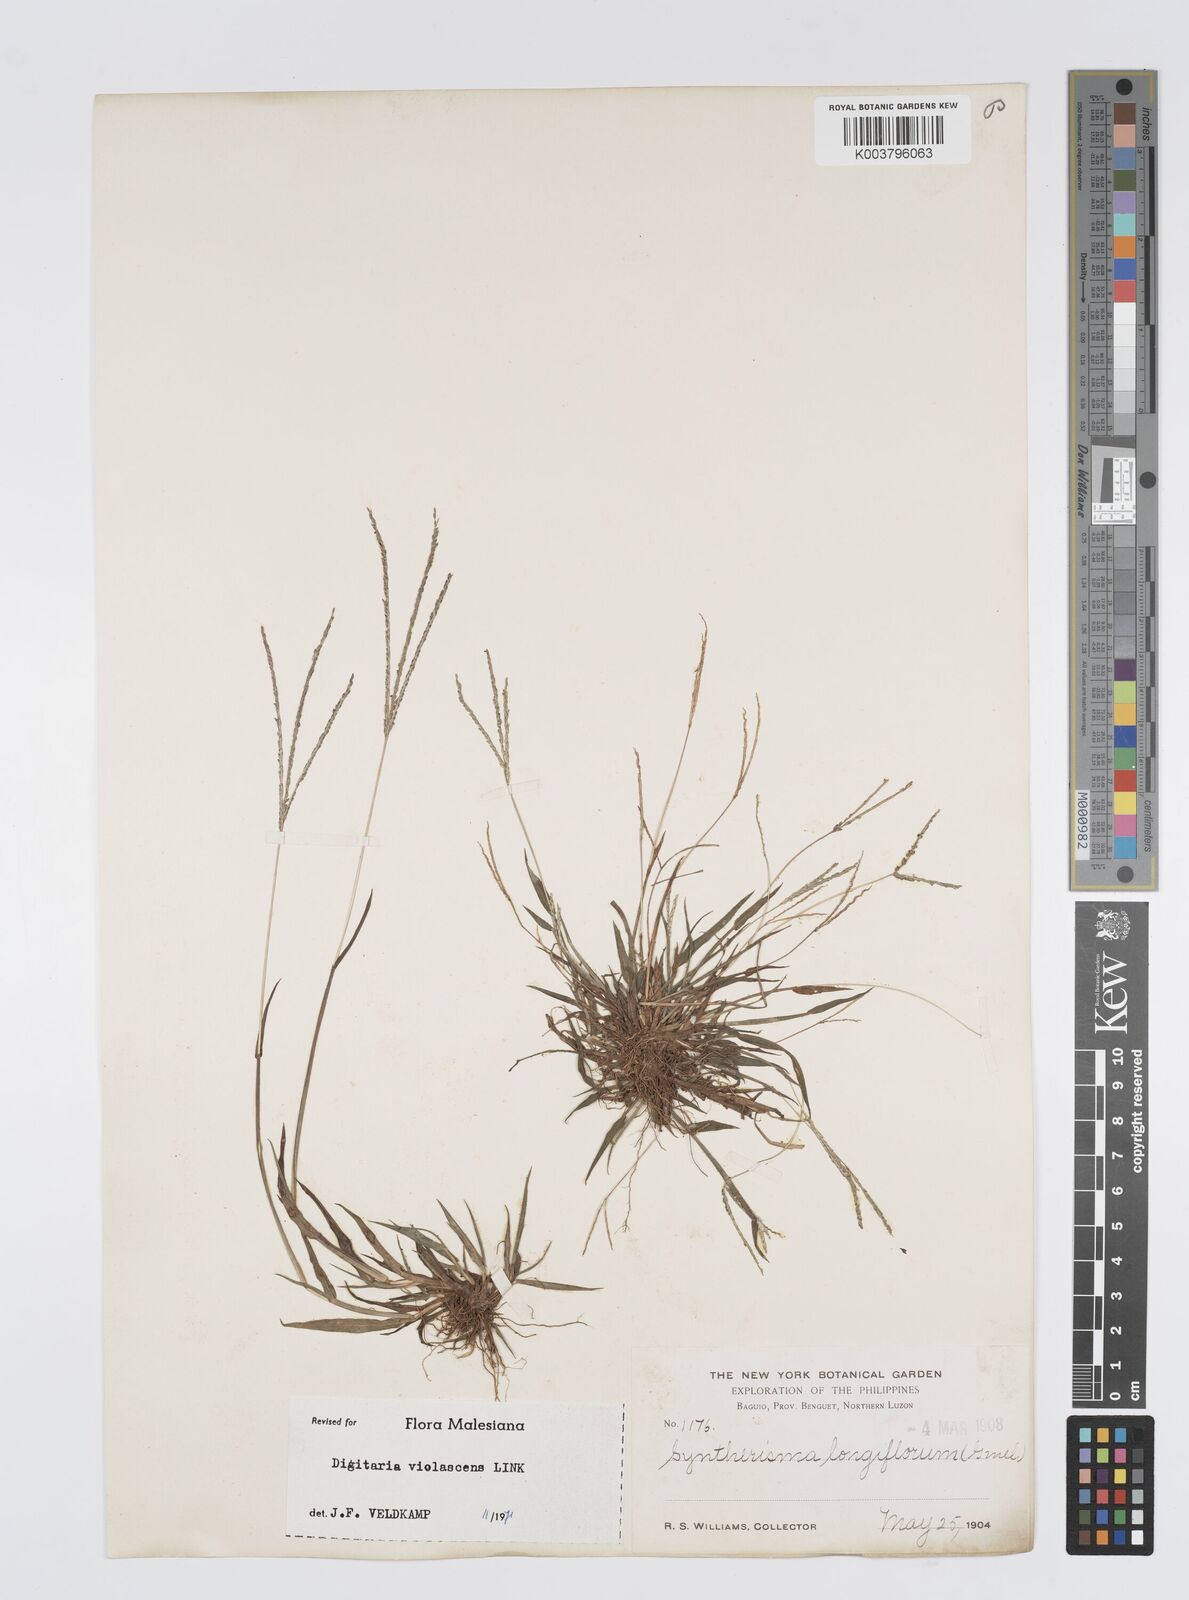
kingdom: Plantae
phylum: Tracheophyta
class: Liliopsida
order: Poales
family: Poaceae
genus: Digitaria
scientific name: Digitaria violascens
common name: Violet crabgrass
